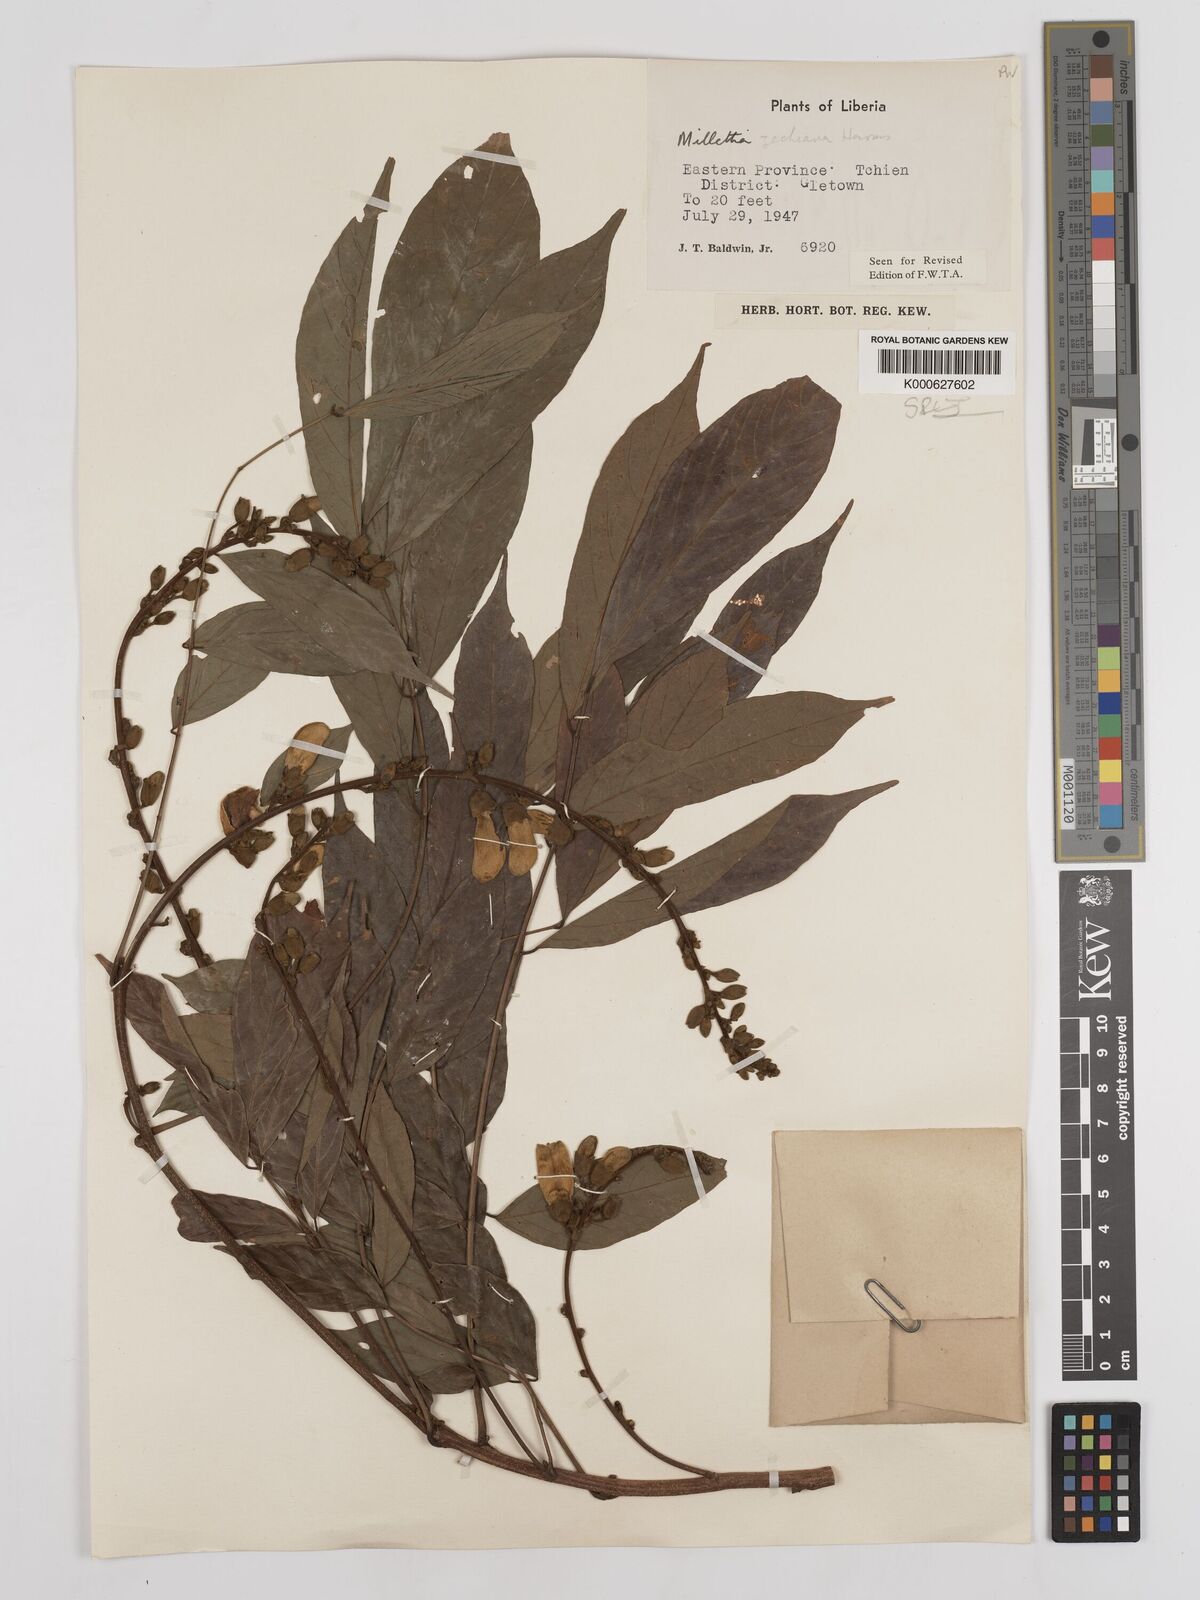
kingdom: Plantae
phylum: Tracheophyta
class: Magnoliopsida
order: Fabales
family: Fabaceae
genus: Millettia
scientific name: Millettia zechiana
